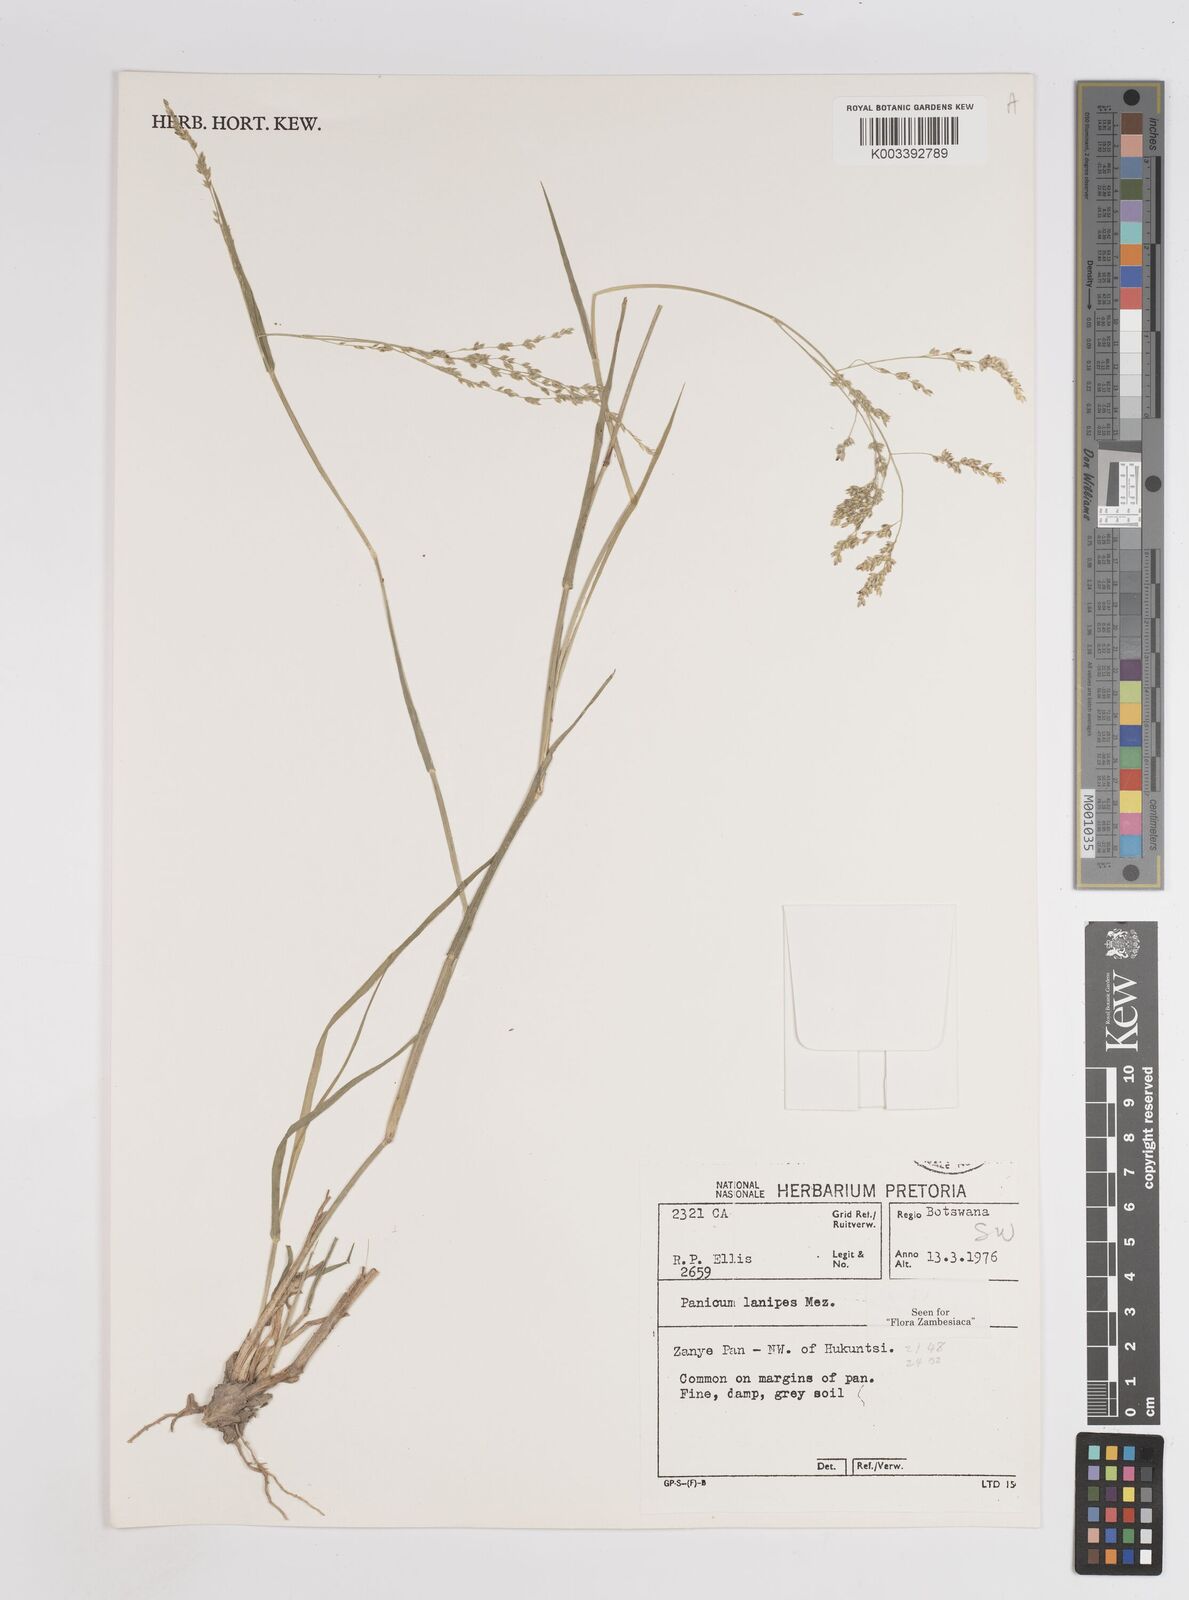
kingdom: Plantae
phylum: Tracheophyta
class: Liliopsida
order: Poales
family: Poaceae
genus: Panicum
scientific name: Panicum lanipes
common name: Wolvoet panicum
